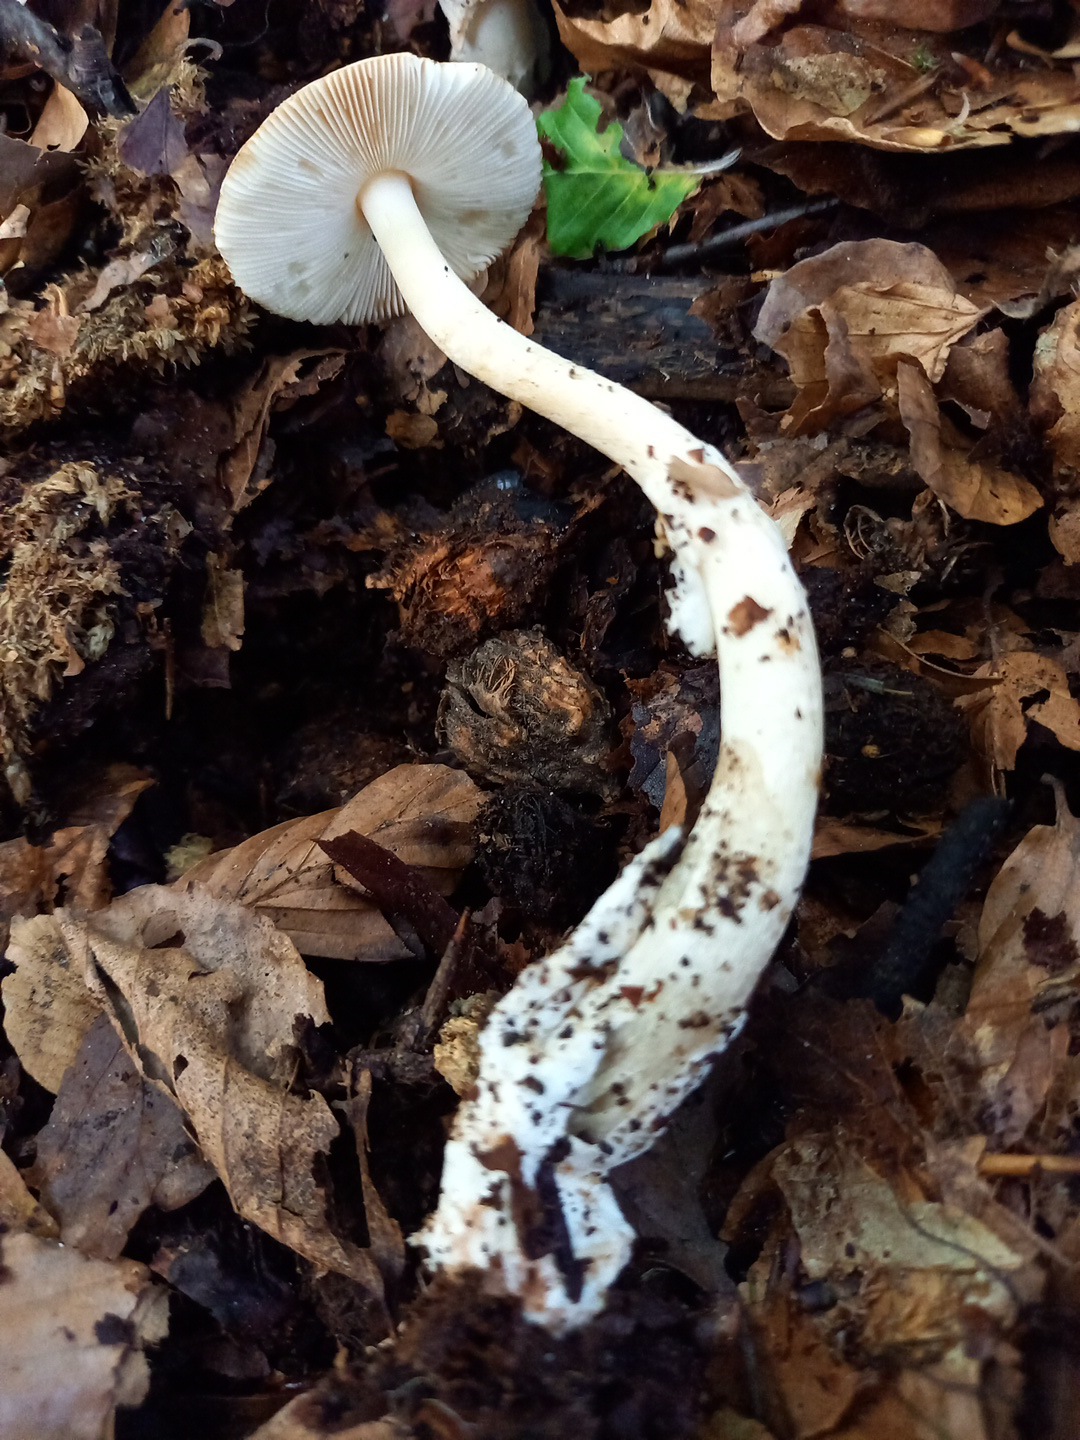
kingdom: Fungi
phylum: Basidiomycota
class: Agaricomycetes
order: Agaricales
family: Amanitaceae
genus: Amanita
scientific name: Amanita fulva
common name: brun kam-fluesvamp
